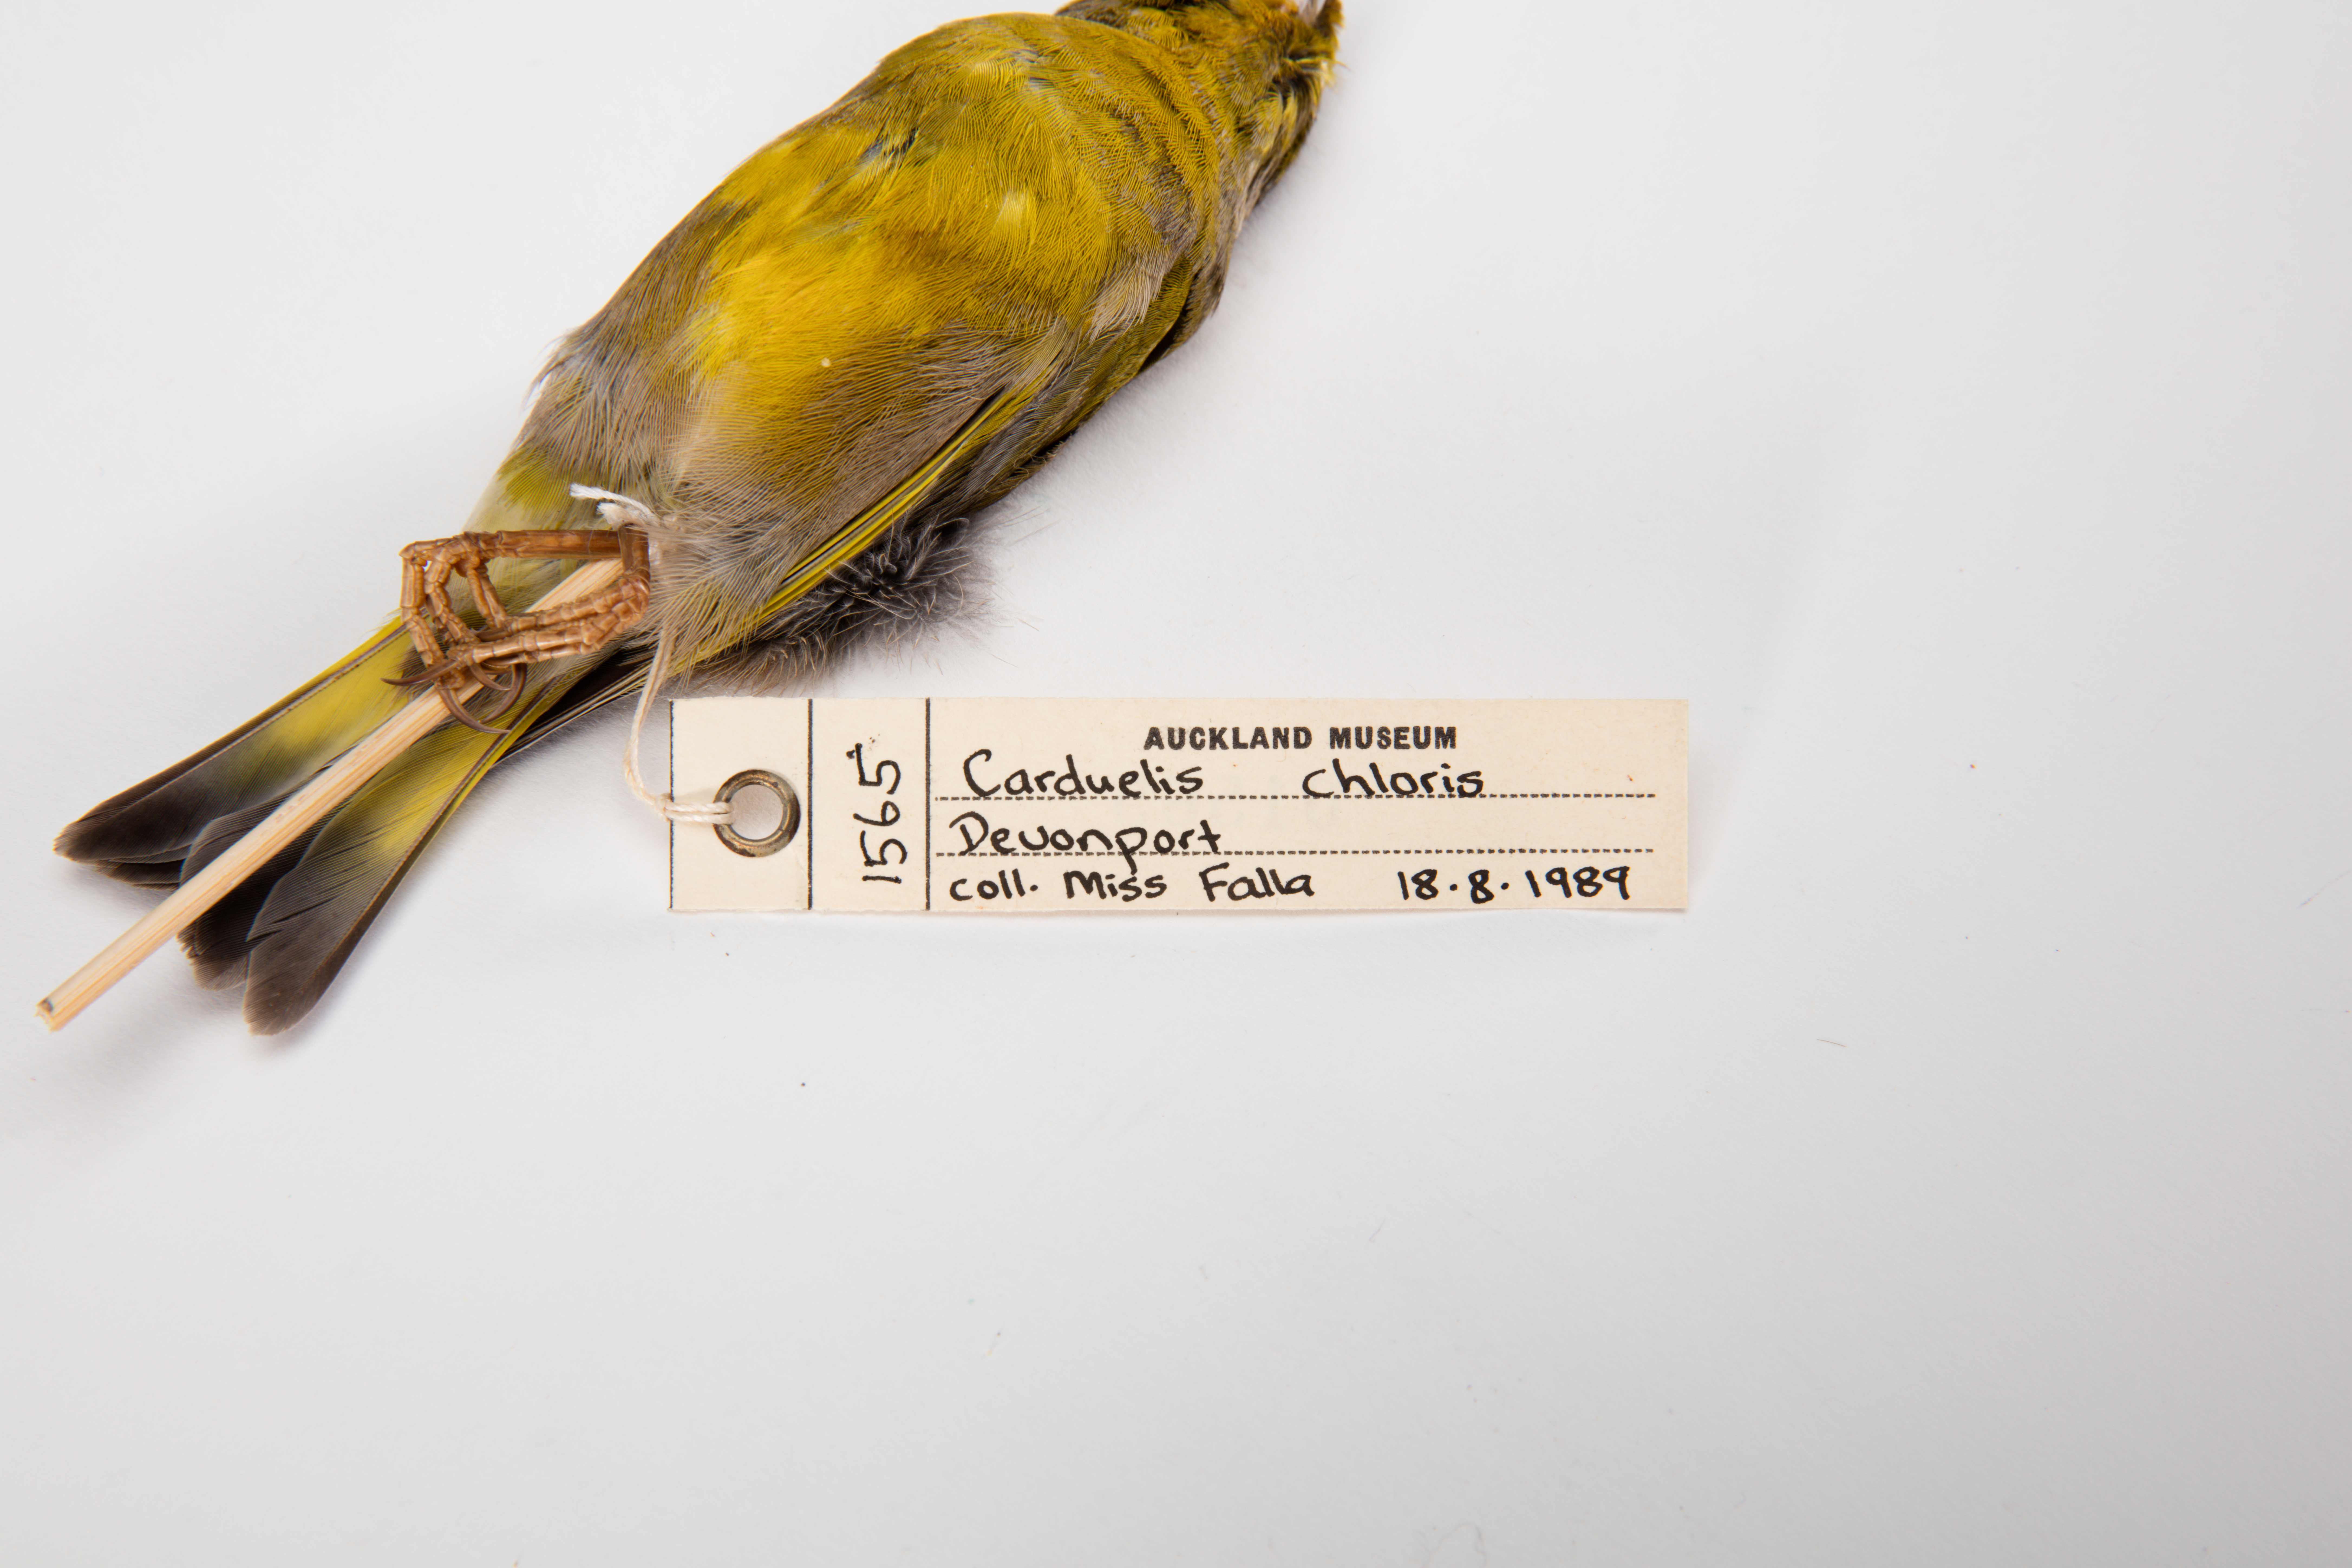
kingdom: Plantae
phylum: Tracheophyta
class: Liliopsida
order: Poales
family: Poaceae
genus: Chloris
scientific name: Chloris chloris
